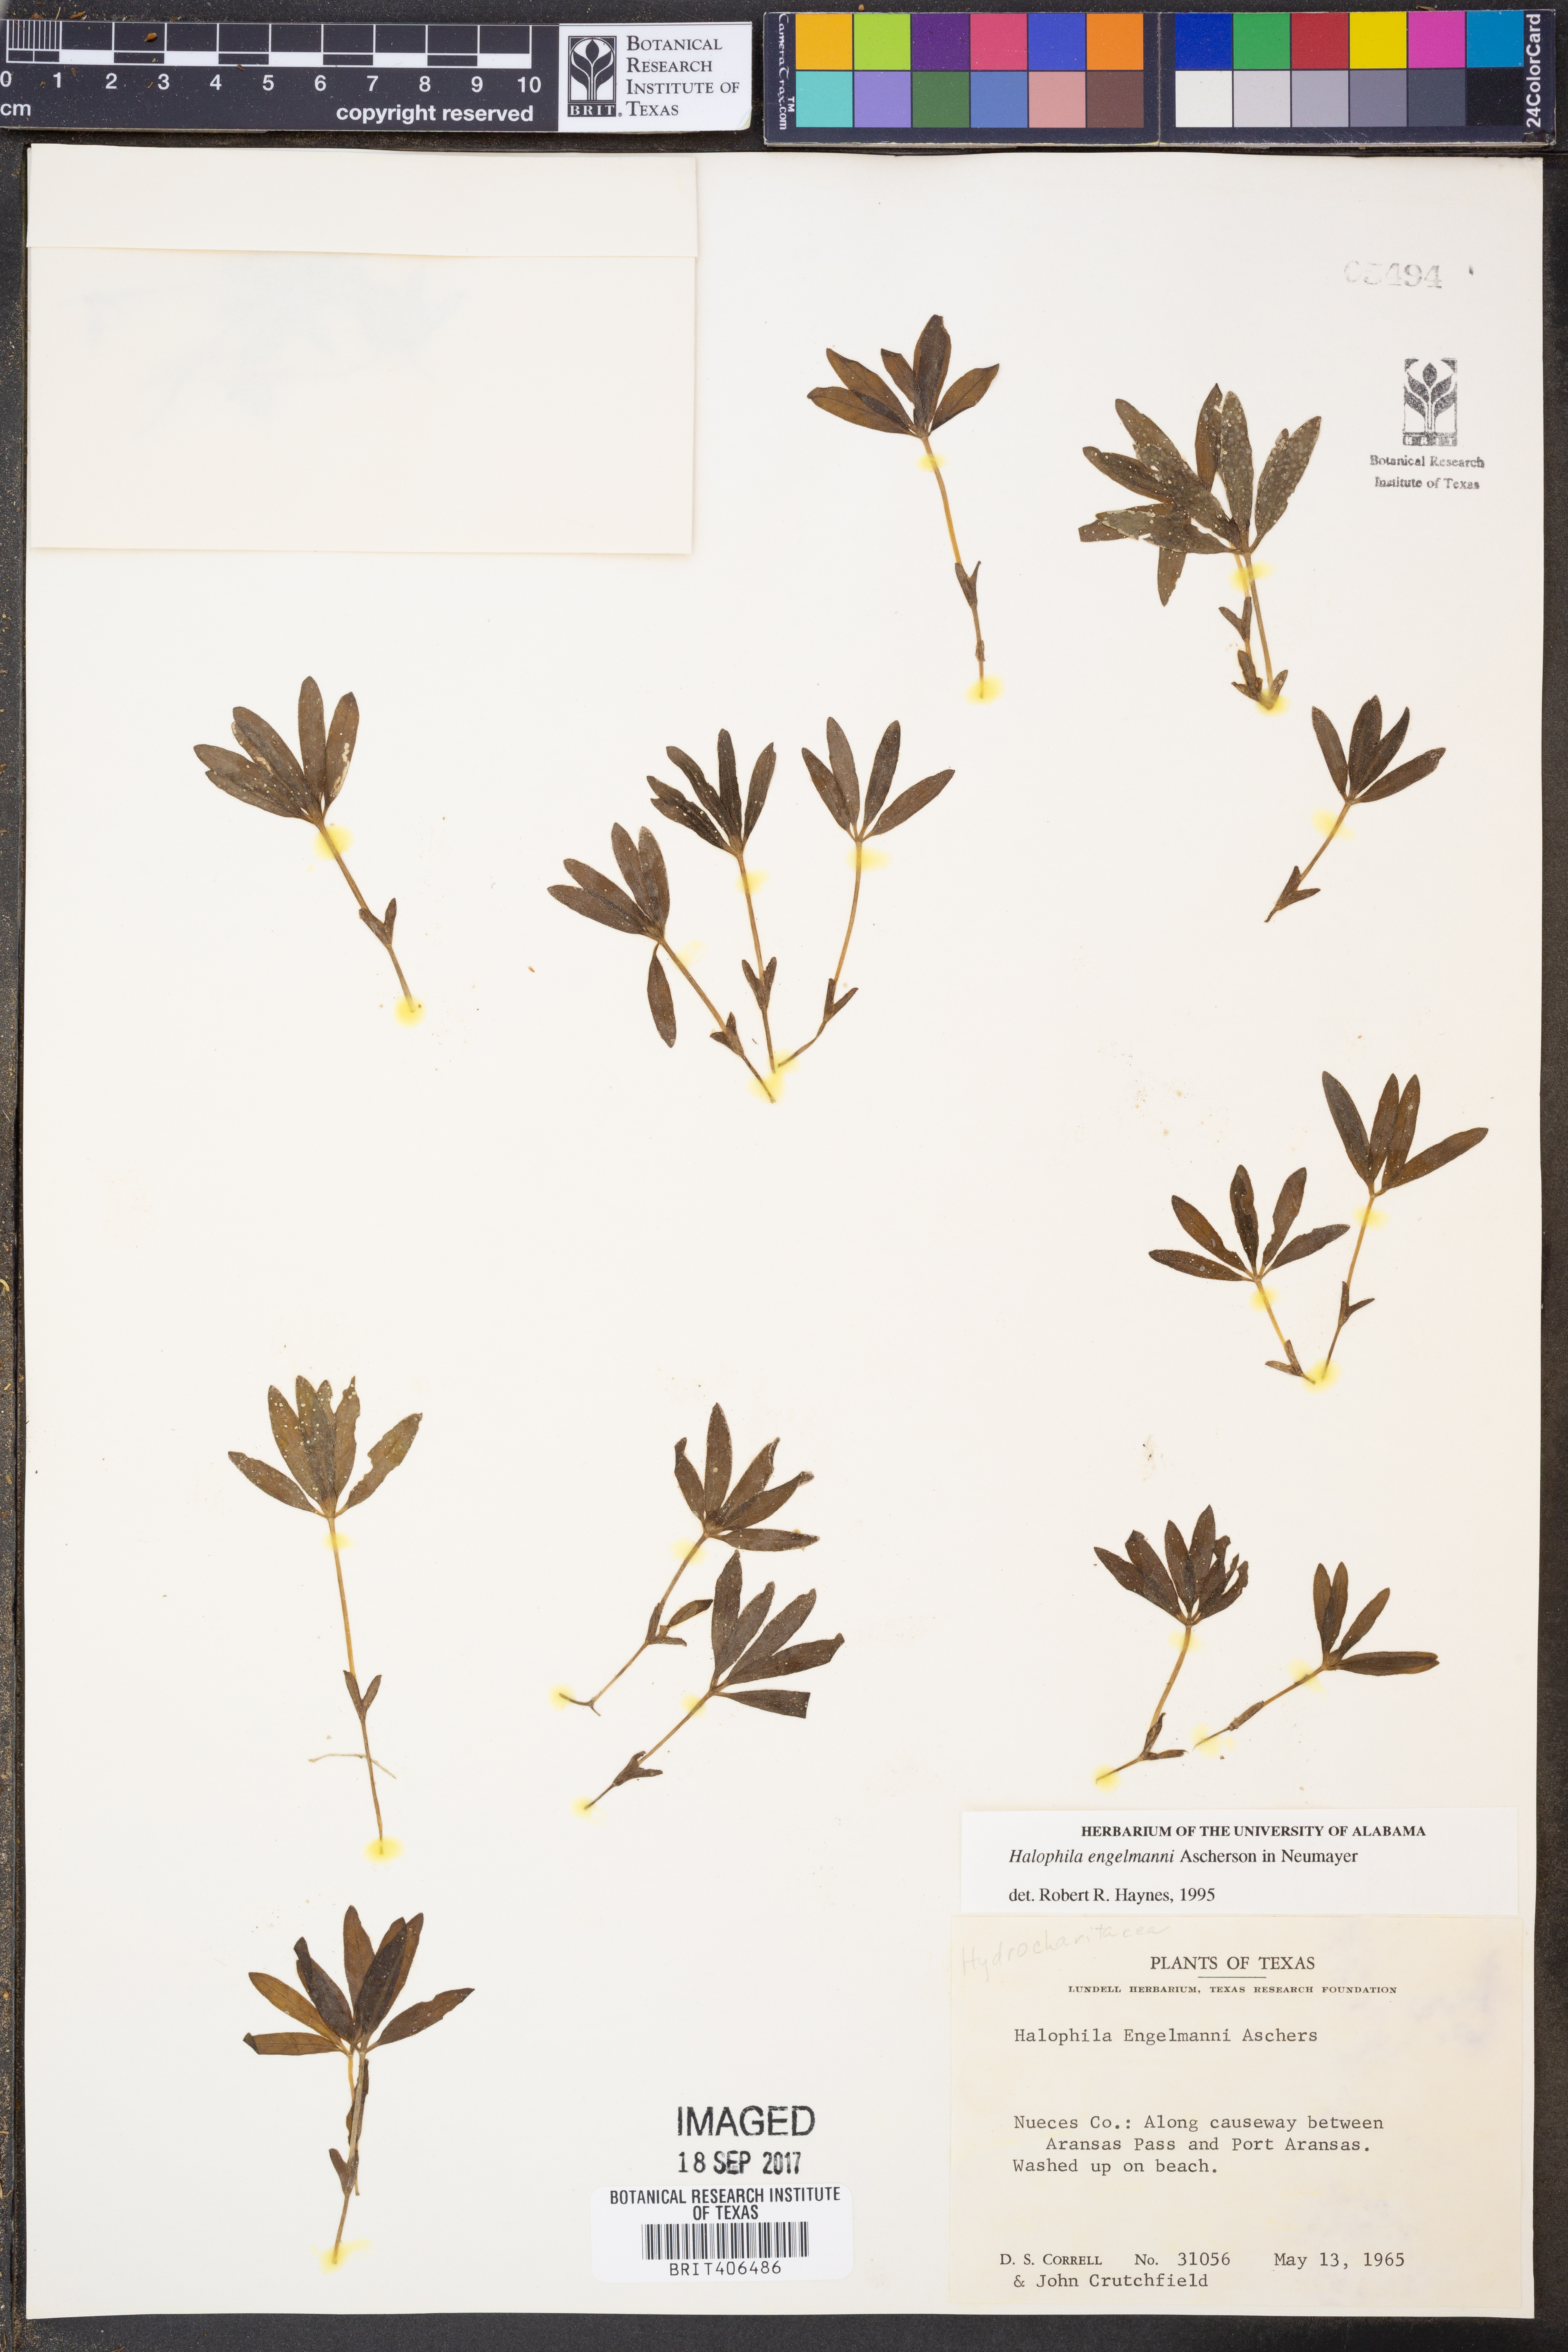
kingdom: Plantae
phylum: Tracheophyta
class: Liliopsida
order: Alismatales
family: Hydrocharitaceae
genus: Halophila
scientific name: Halophila engelmannii
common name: Species code: he
